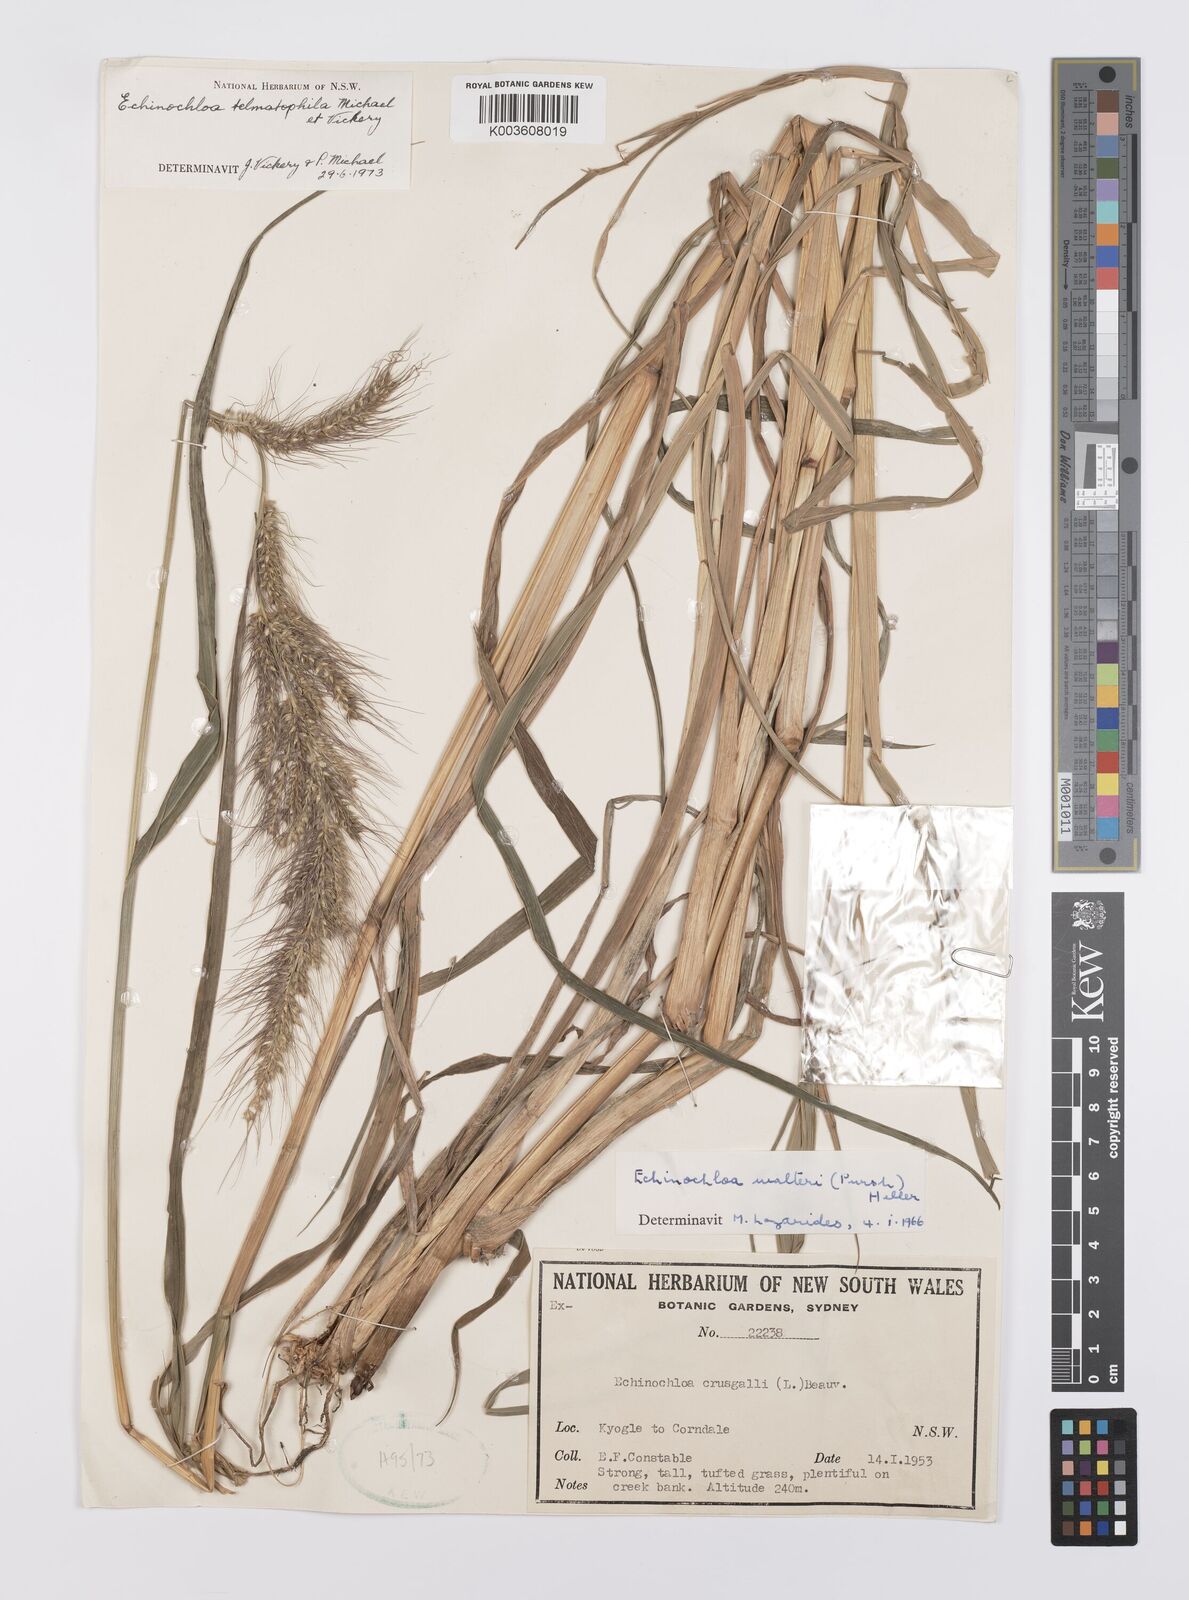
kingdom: Plantae
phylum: Tracheophyta
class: Liliopsida
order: Poales
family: Poaceae
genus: Echinochloa
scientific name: Echinochloa crus-galli
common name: Cockspur
